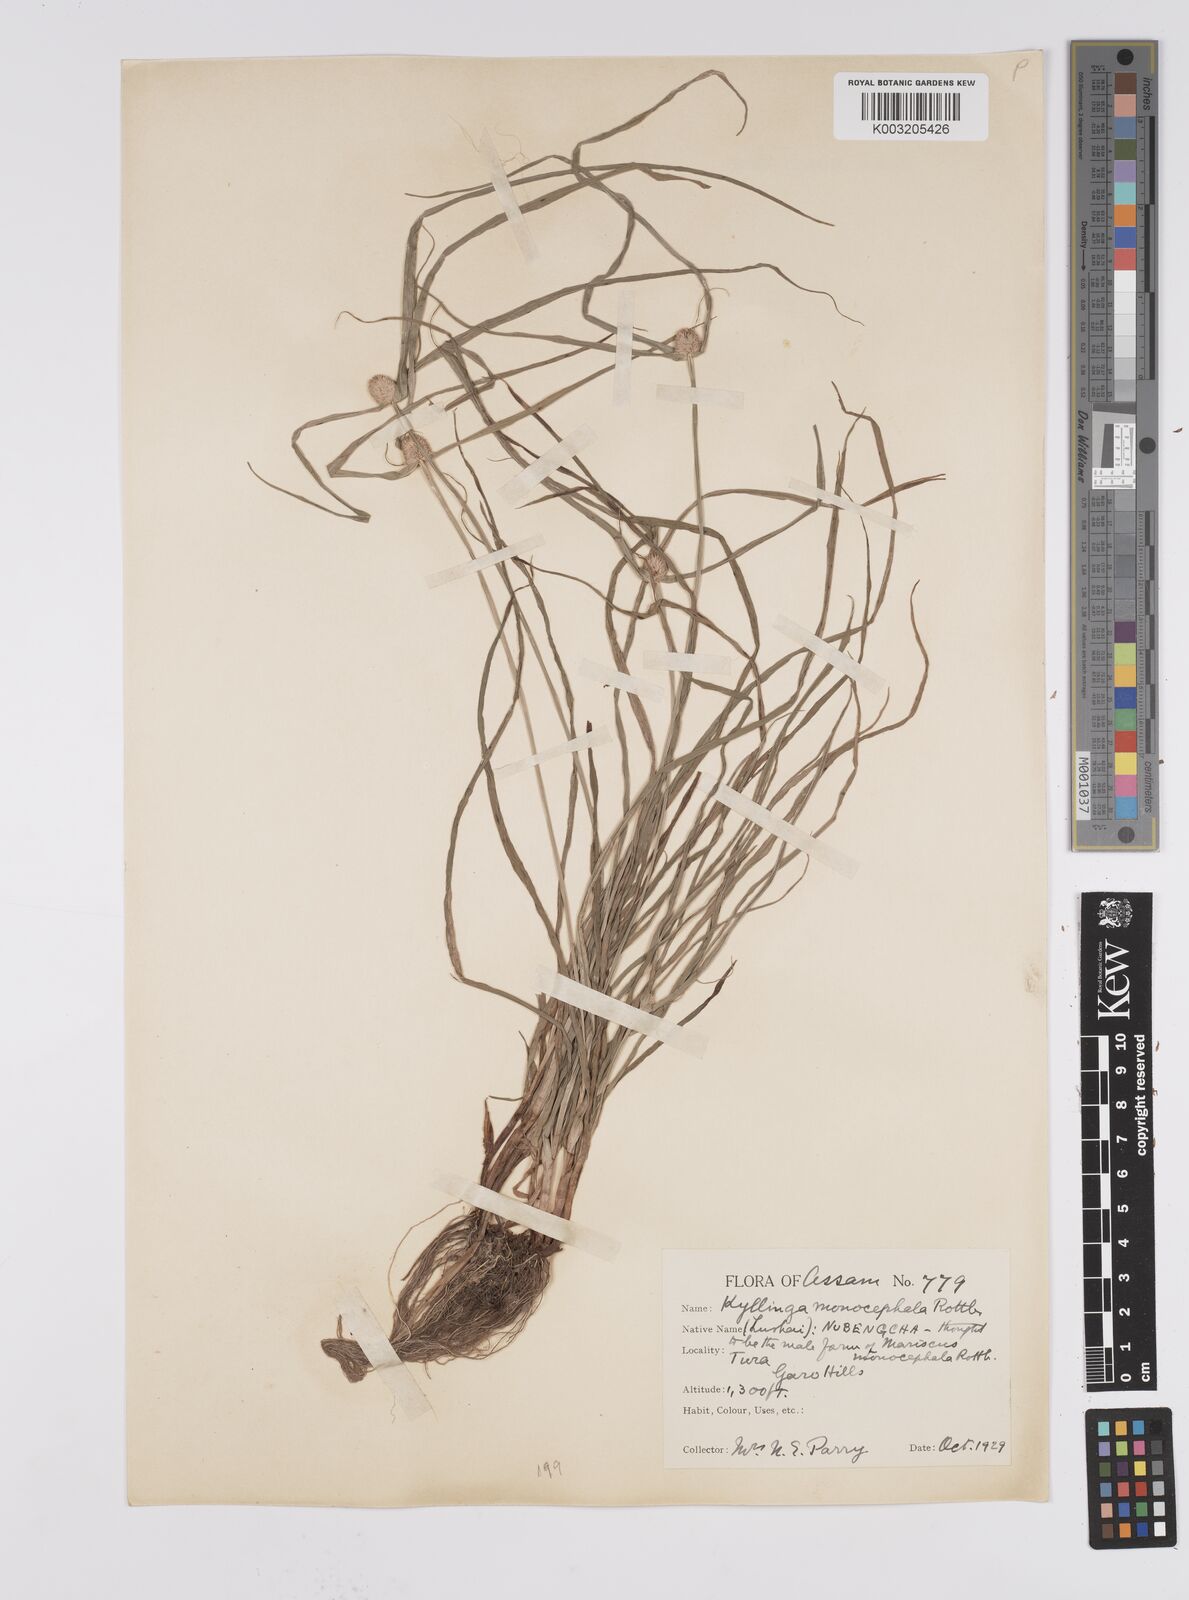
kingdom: Plantae
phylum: Tracheophyta
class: Liliopsida
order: Poales
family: Cyperaceae
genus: Cyperus
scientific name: Cyperus nemoralis
